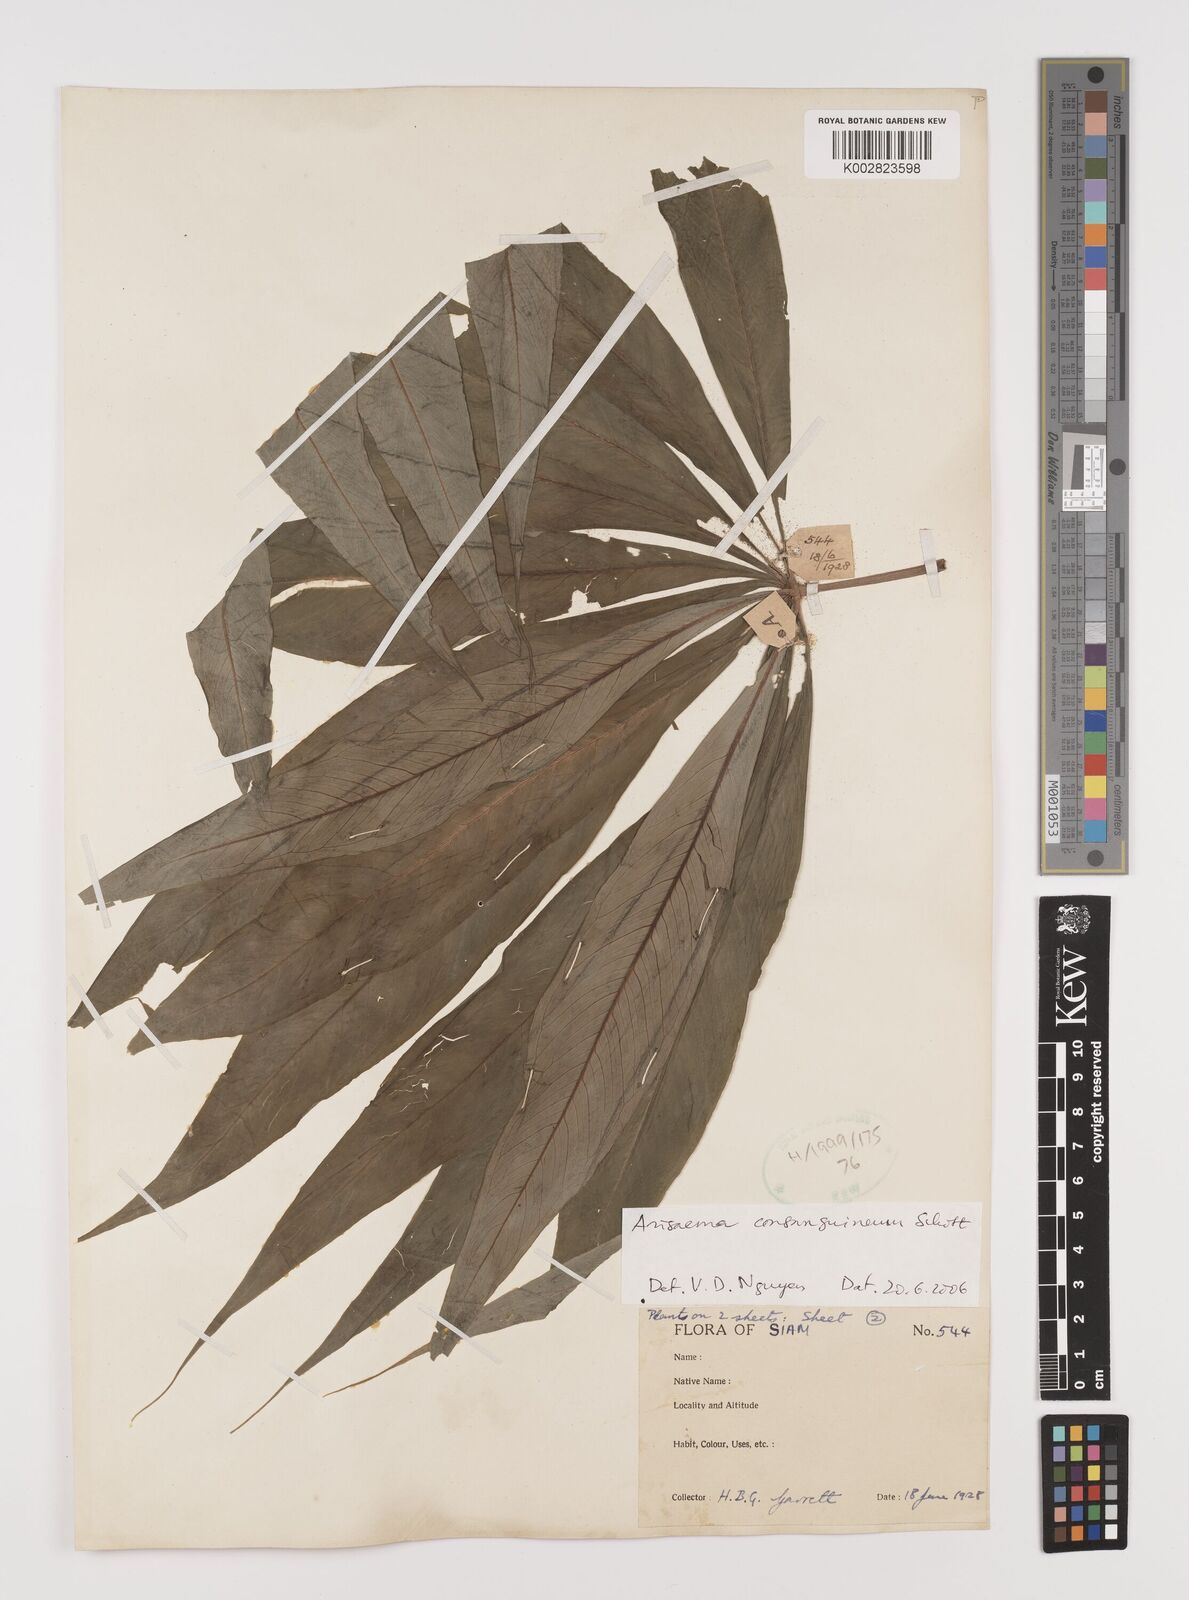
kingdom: Plantae
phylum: Tracheophyta
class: Liliopsida
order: Alismatales
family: Araceae
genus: Arisaema
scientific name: Arisaema consanguineum
